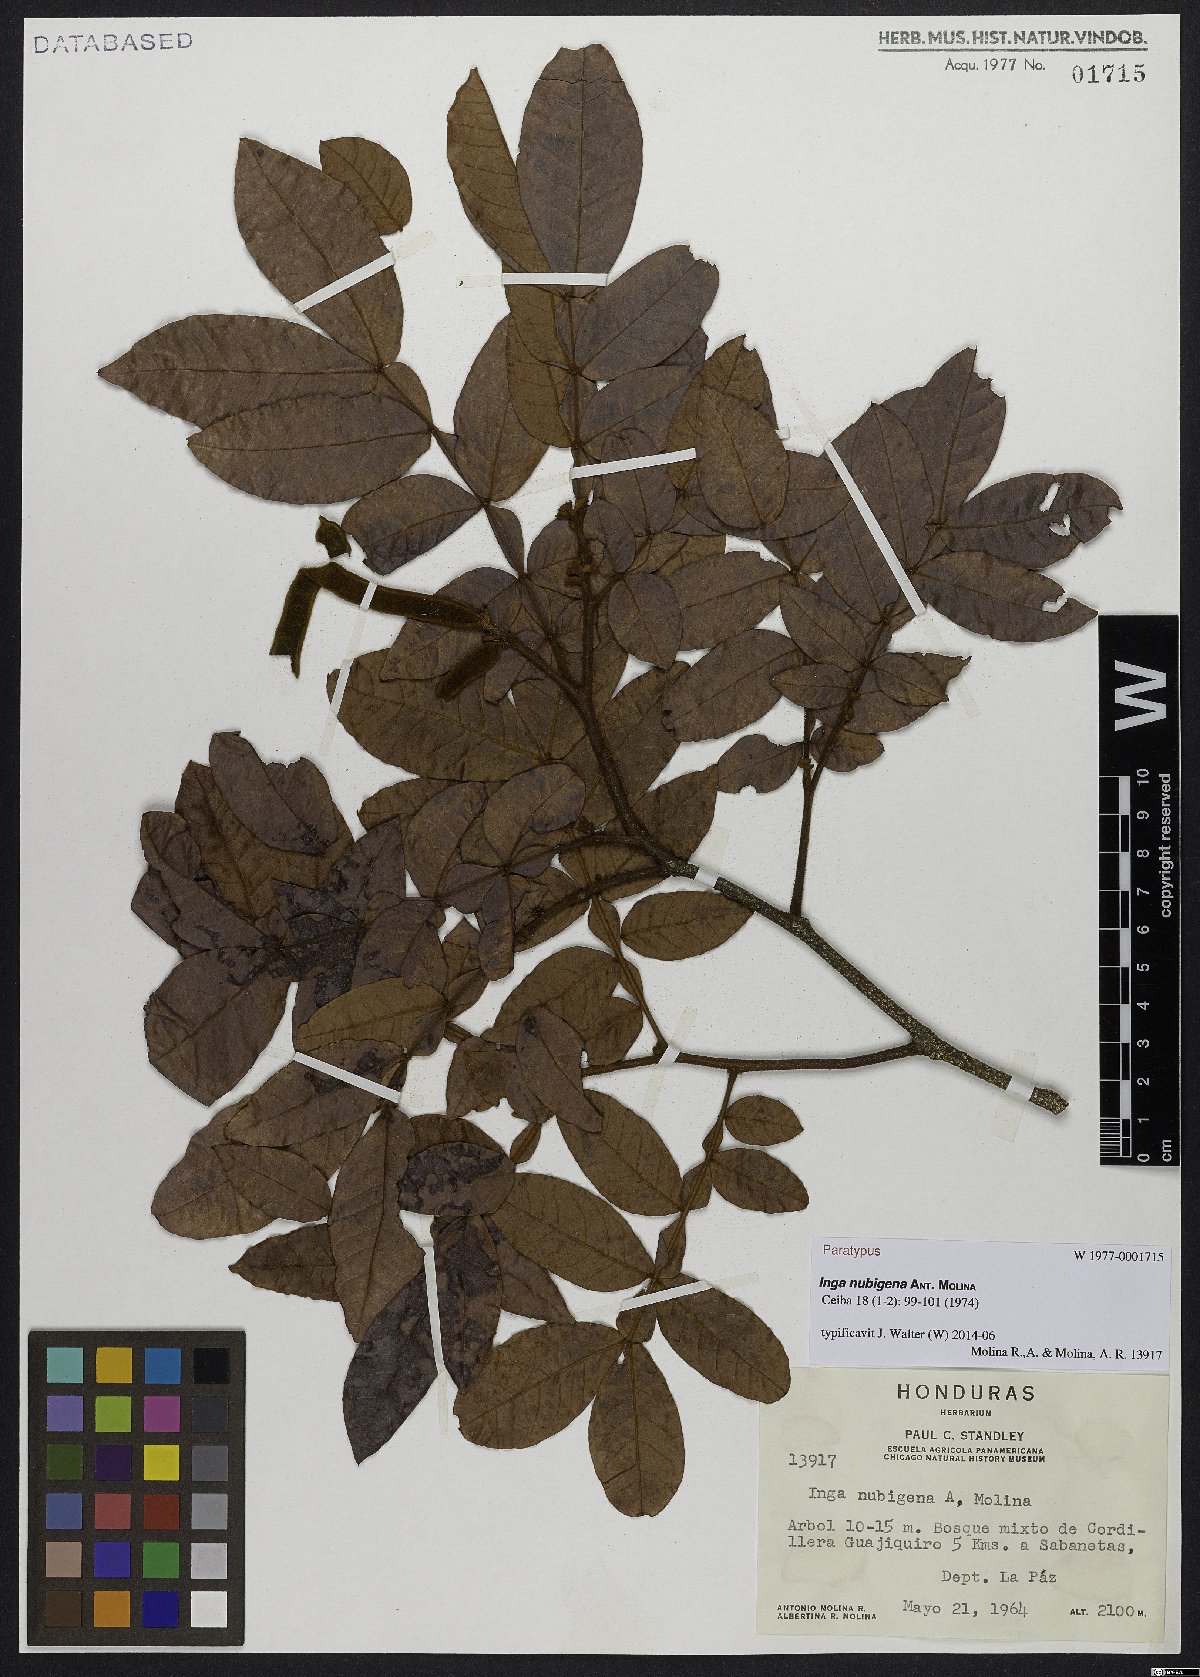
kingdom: Plantae
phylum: Tracheophyta
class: Magnoliopsida
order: Fabales
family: Fabaceae
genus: Inga
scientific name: Inga flexuosa
